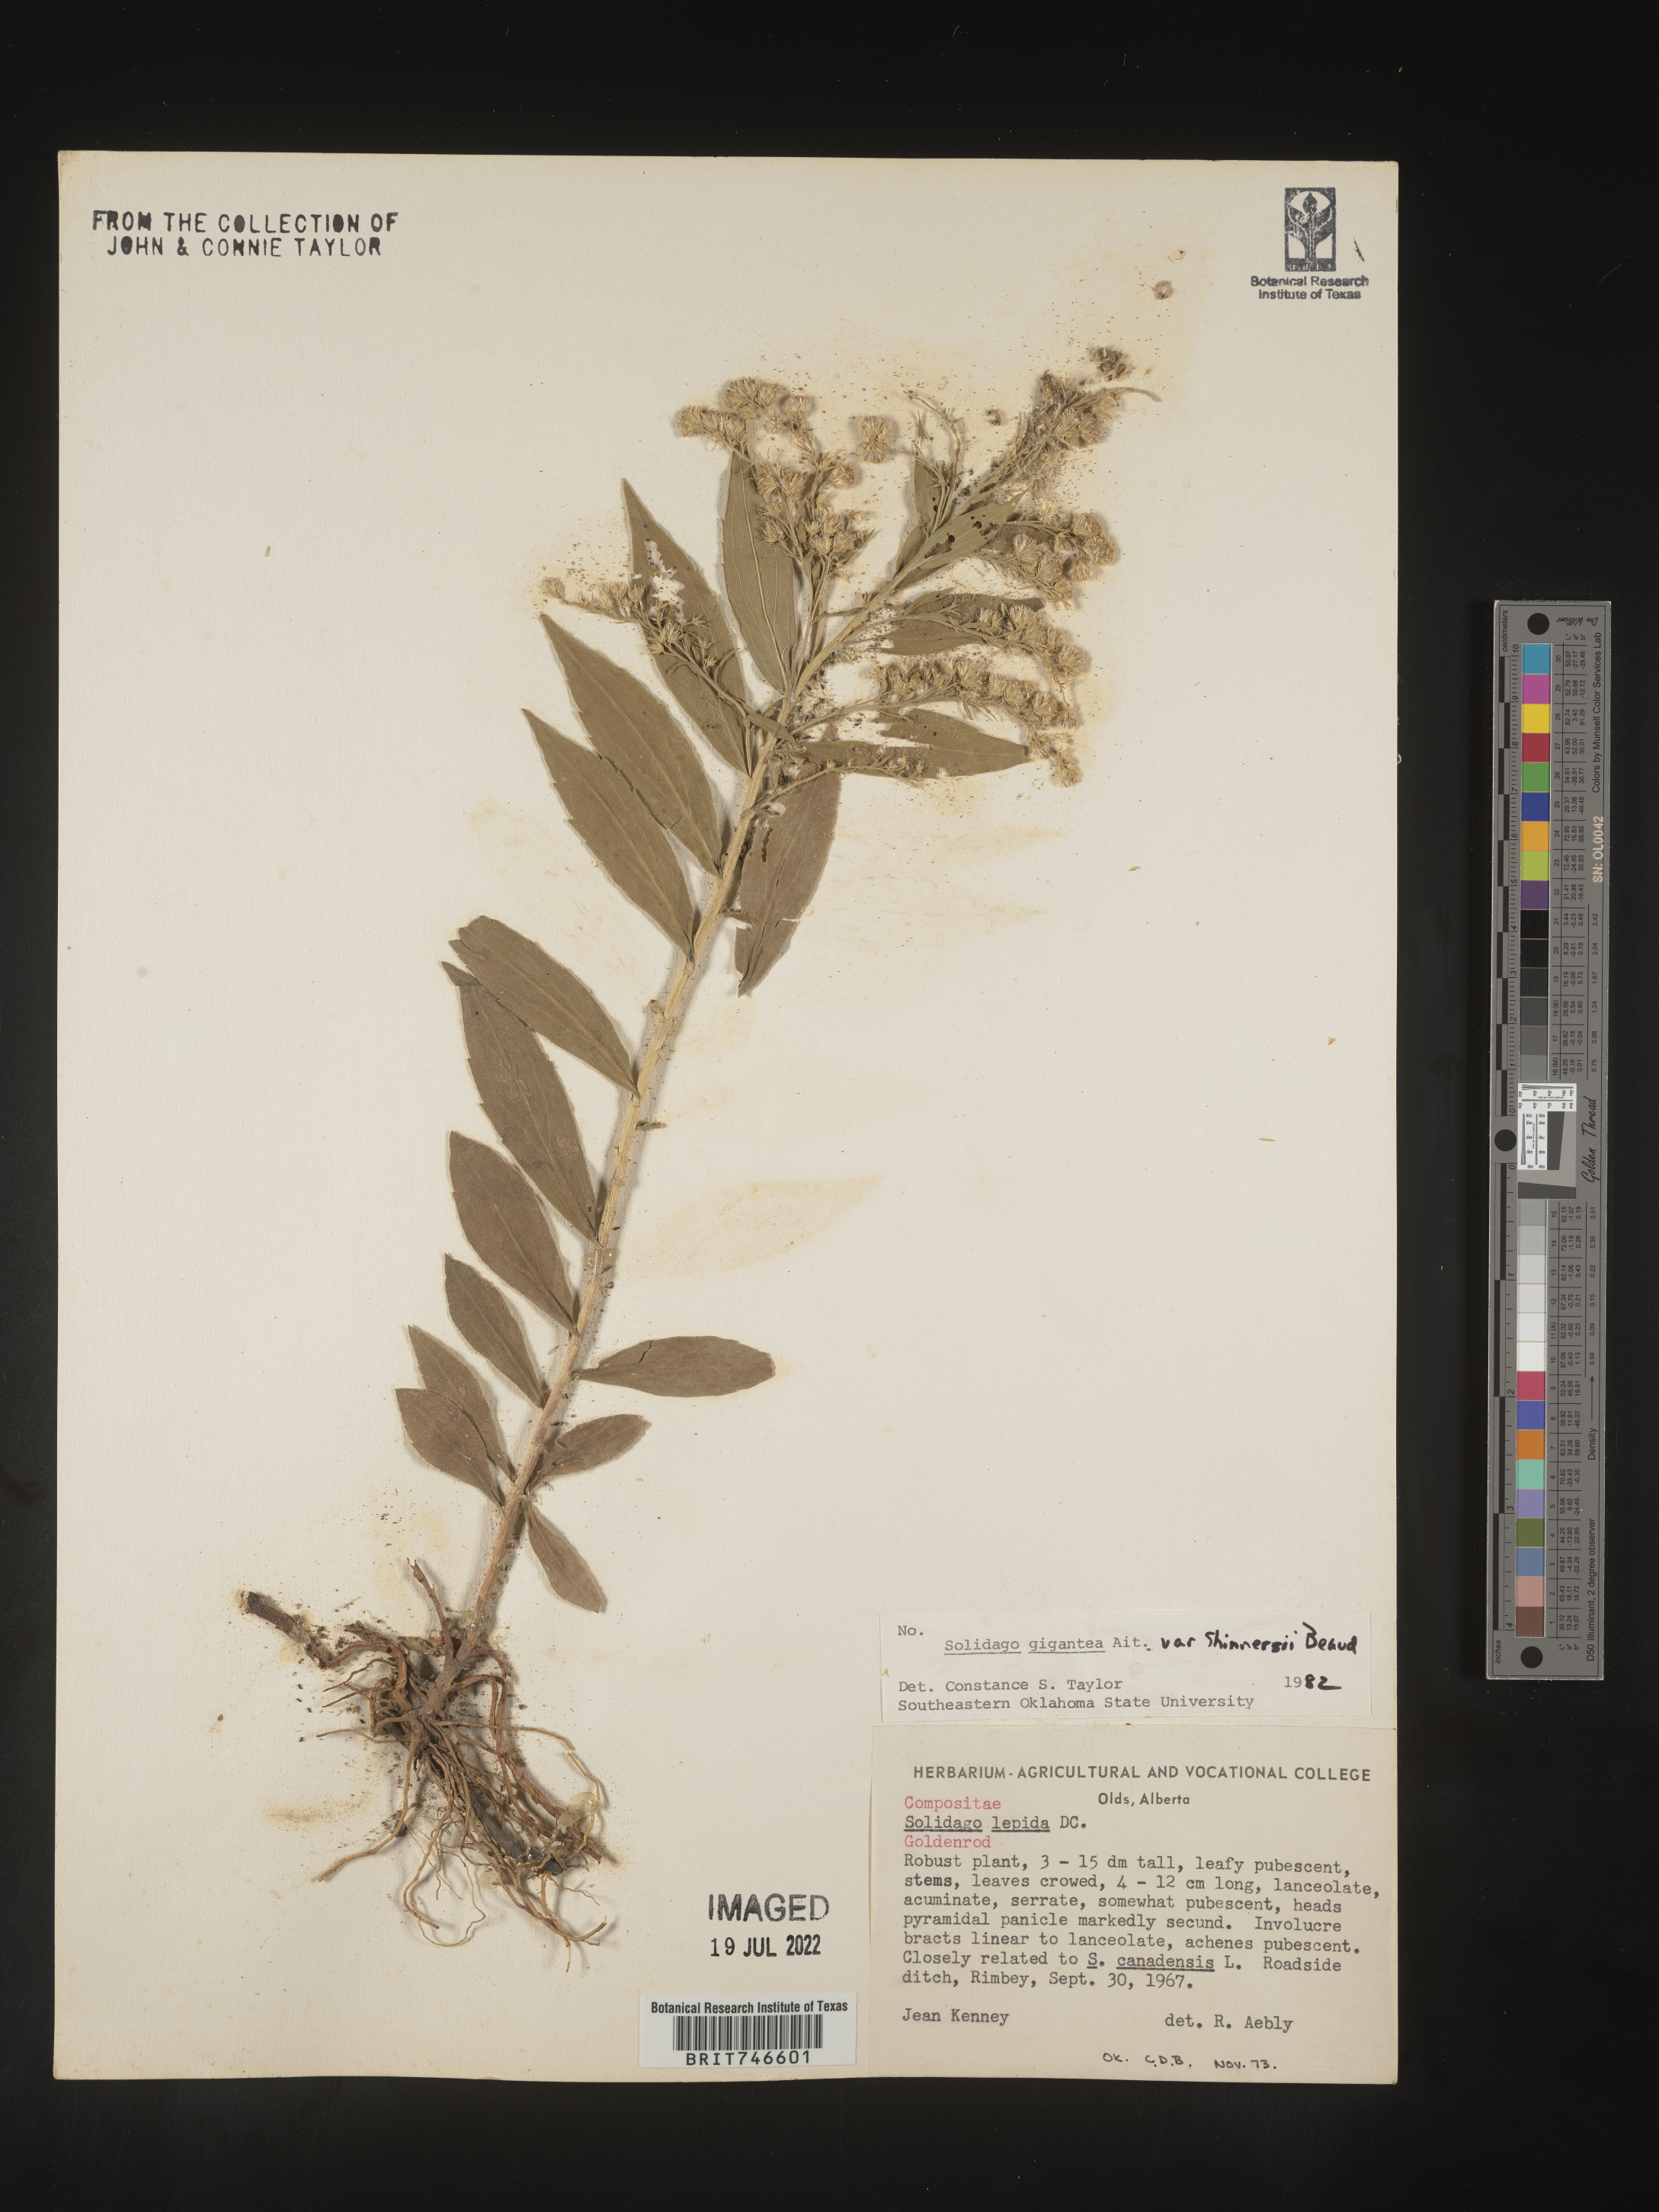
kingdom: Plantae
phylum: Tracheophyta
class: Magnoliopsida
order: Asterales
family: Asteraceae
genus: Solidago
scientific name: Solidago gigantea
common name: Giant goldenrod
